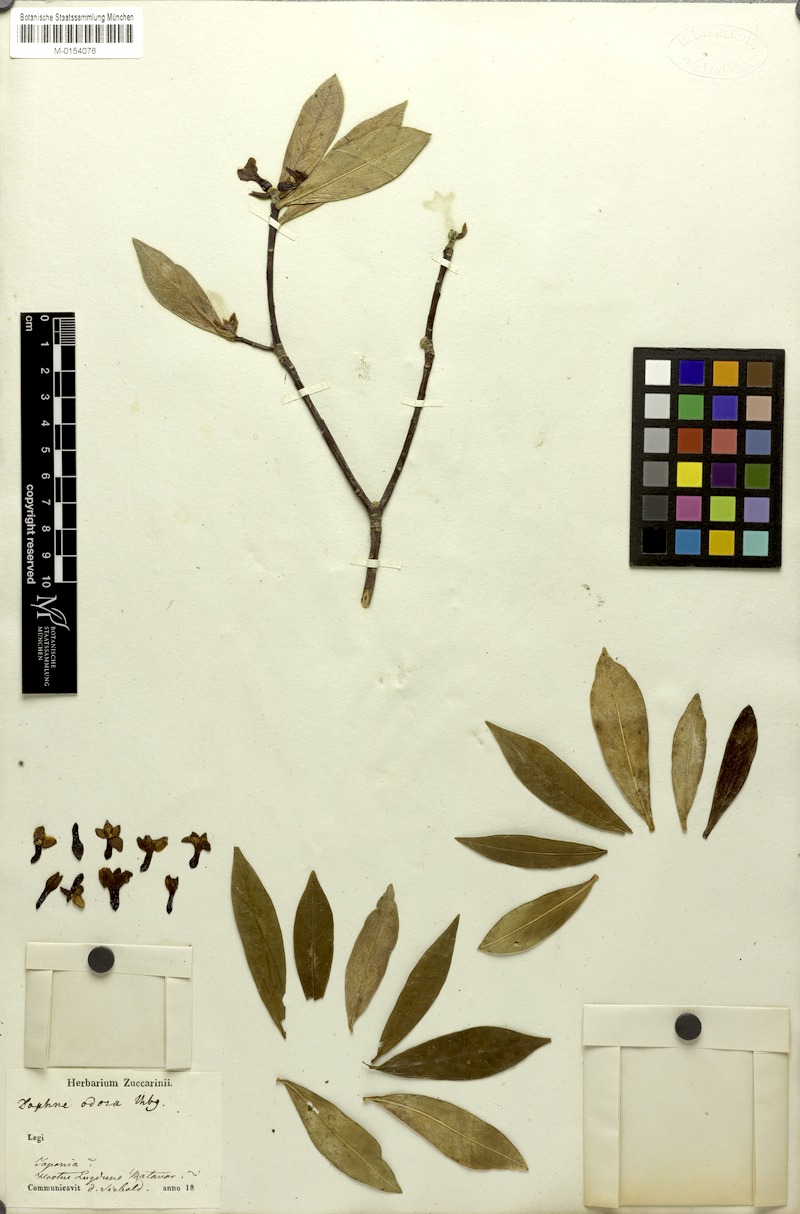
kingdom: Plantae
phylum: Tracheophyta
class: Magnoliopsida
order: Malvales
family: Thymelaeaceae
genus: Daphne
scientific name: Daphne odora
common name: Winter daphne
